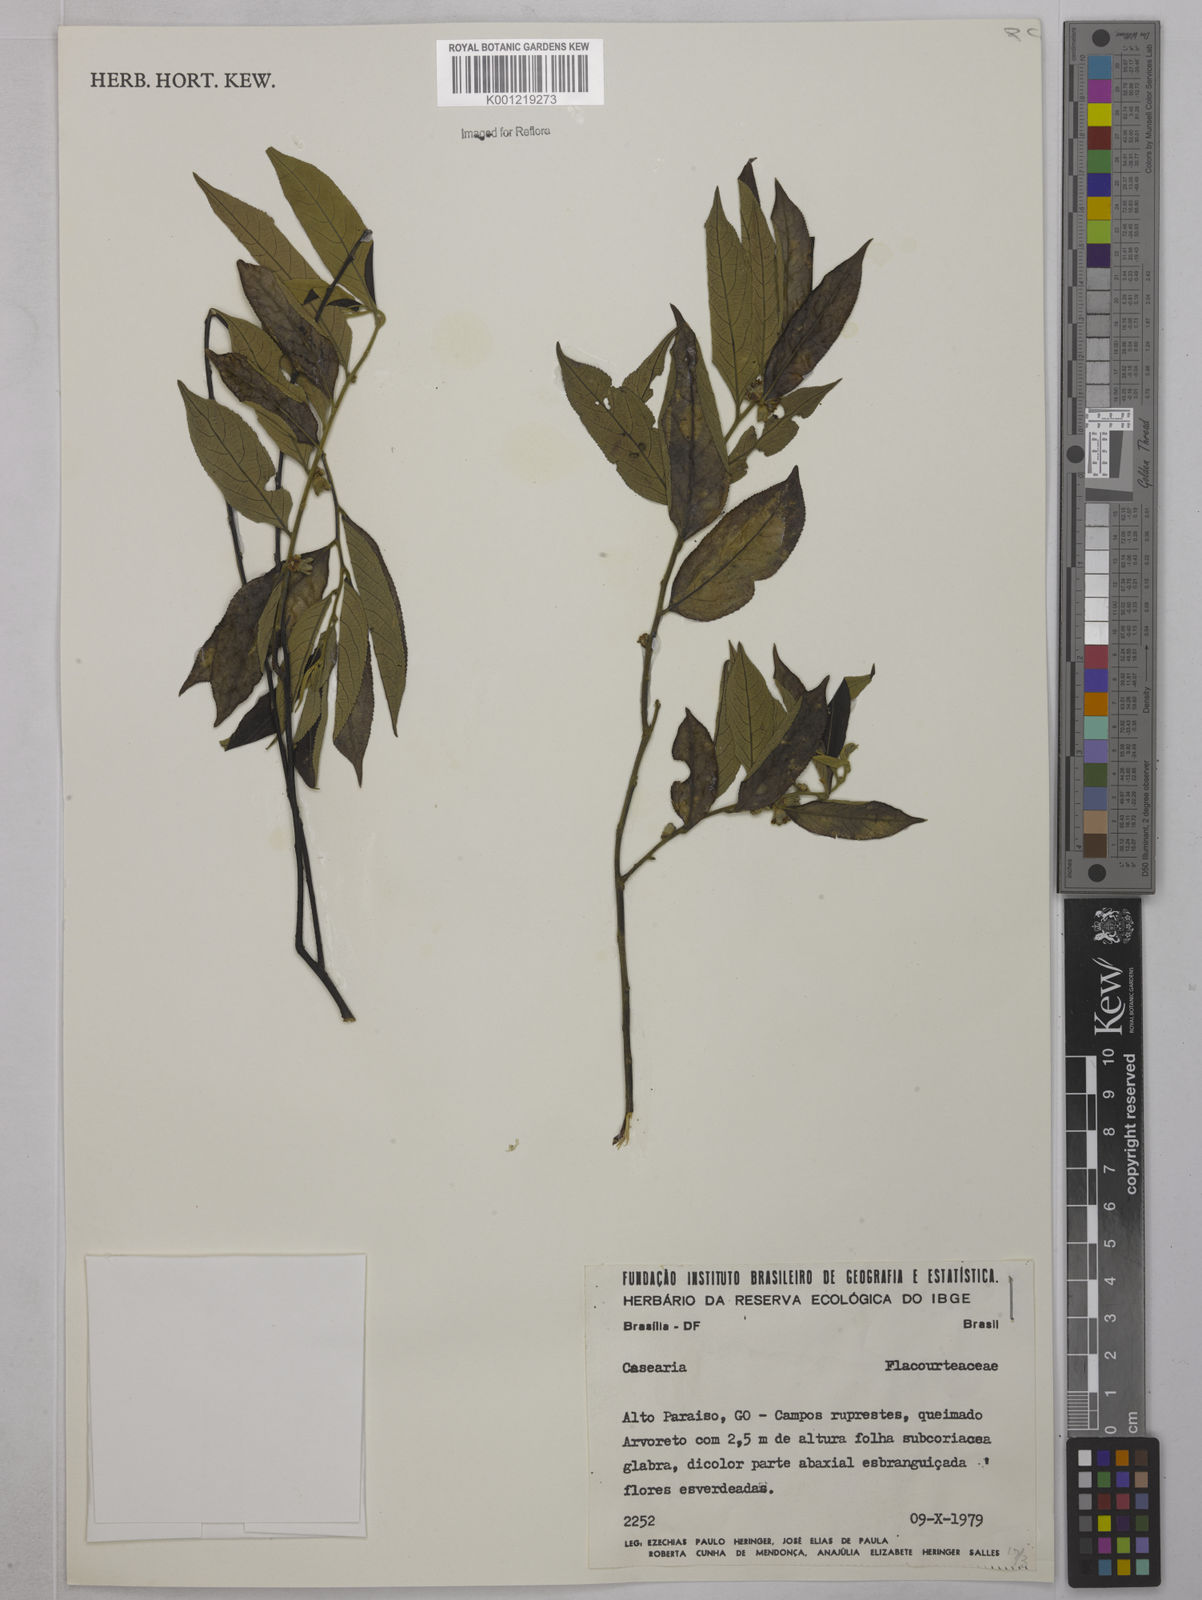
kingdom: Plantae
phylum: Tracheophyta
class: Magnoliopsida
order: Malpighiales
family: Salicaceae
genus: Casearia
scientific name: Casearia
